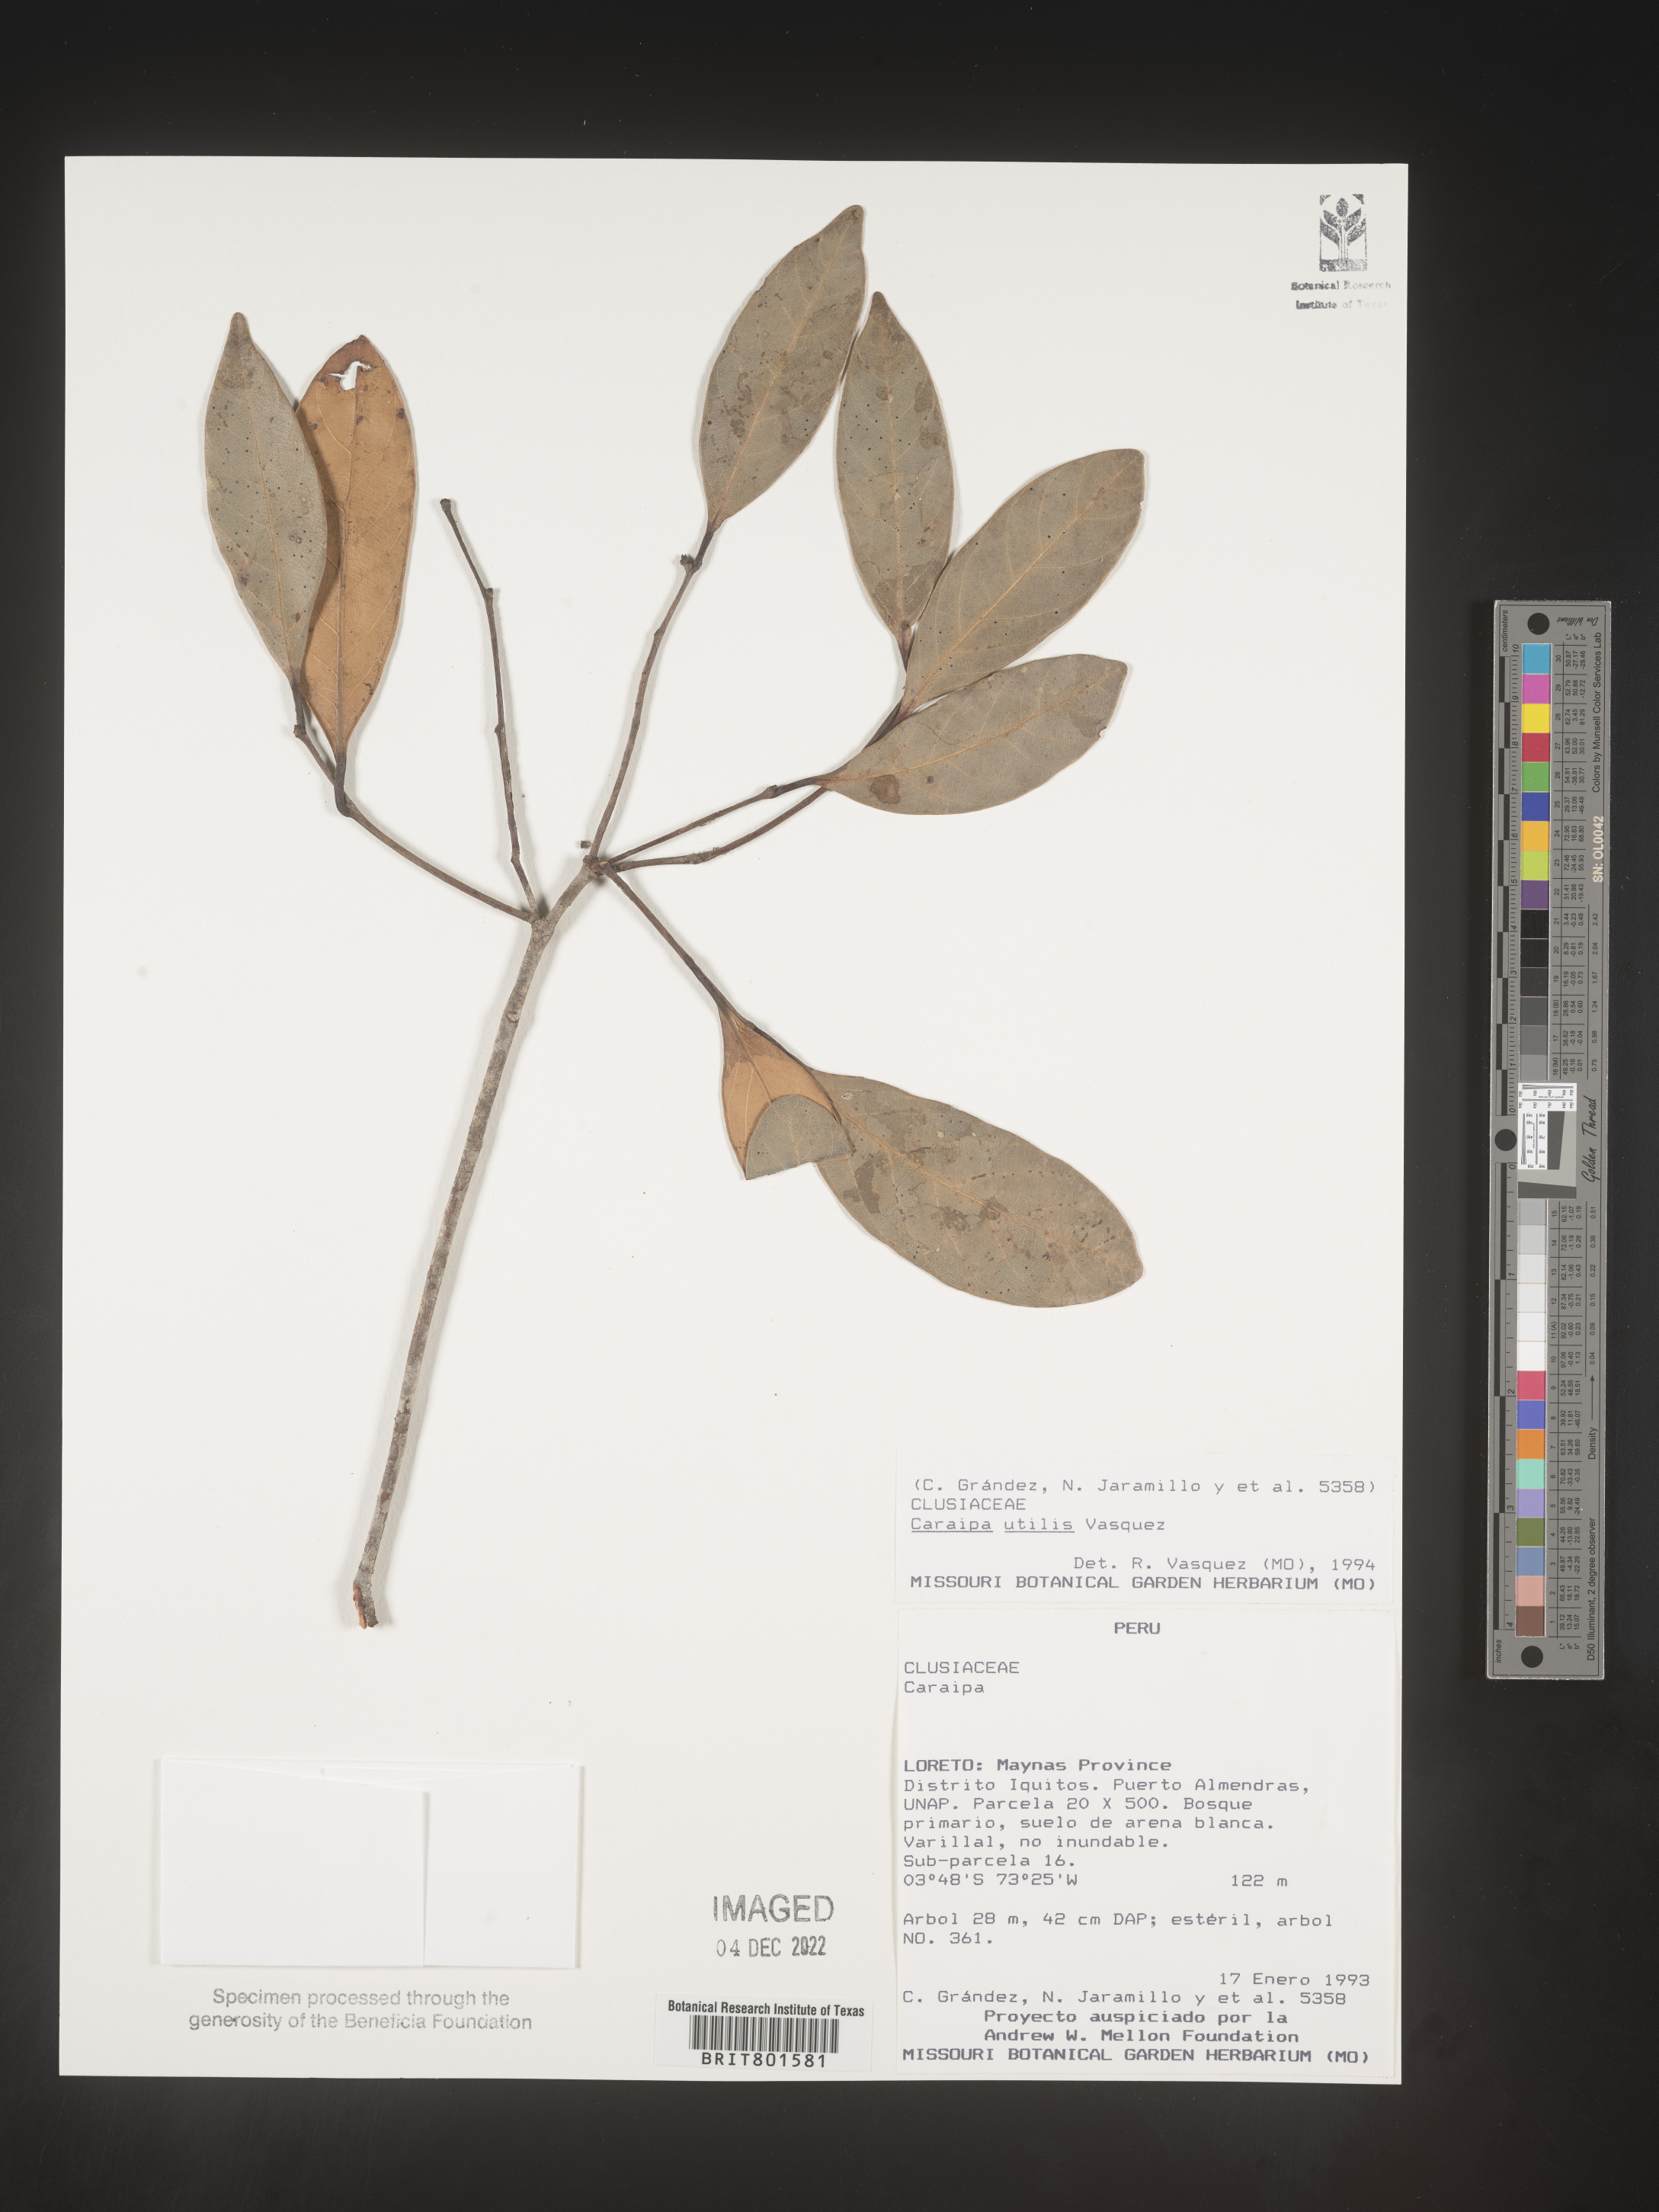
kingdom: Plantae
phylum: Tracheophyta
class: Magnoliopsida
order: Malpighiales
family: Calophyllaceae
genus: Caraipa
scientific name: Caraipa utilis
